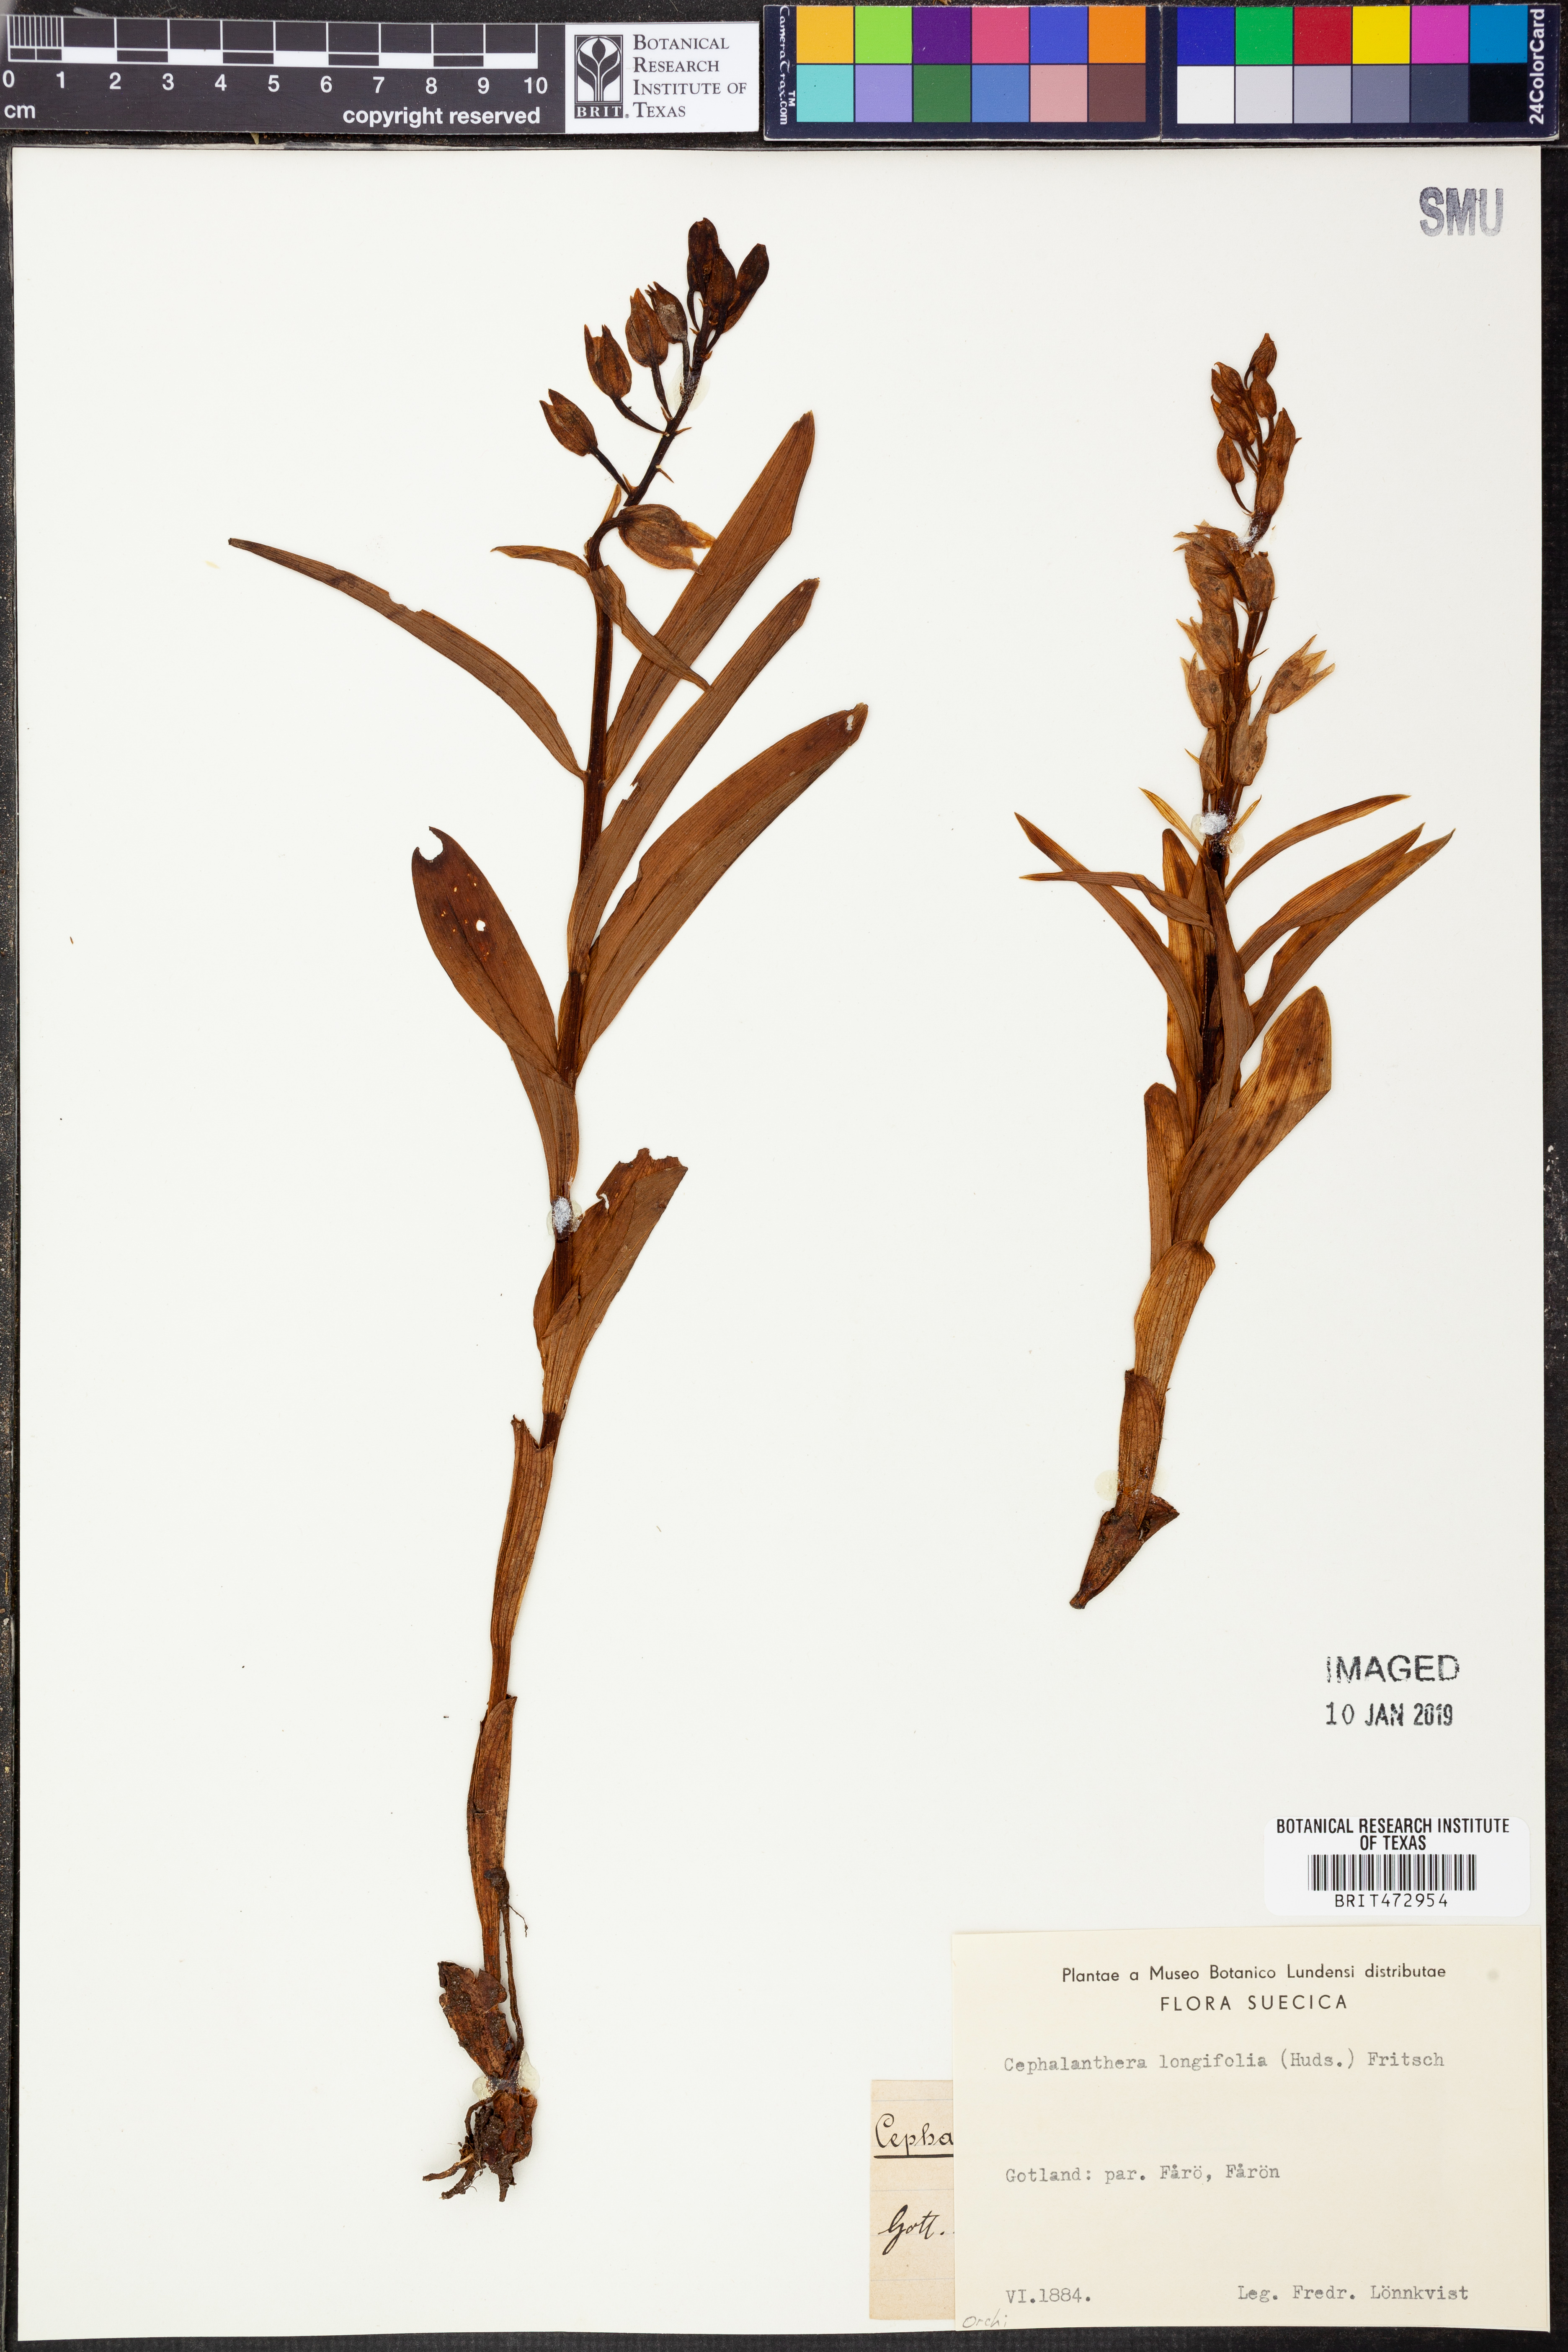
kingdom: Plantae
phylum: Tracheophyta
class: Liliopsida
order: Asparagales
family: Orchidaceae
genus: Cephalanthera
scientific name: Cephalanthera longifolia
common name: Narrow-leaved helleborine
